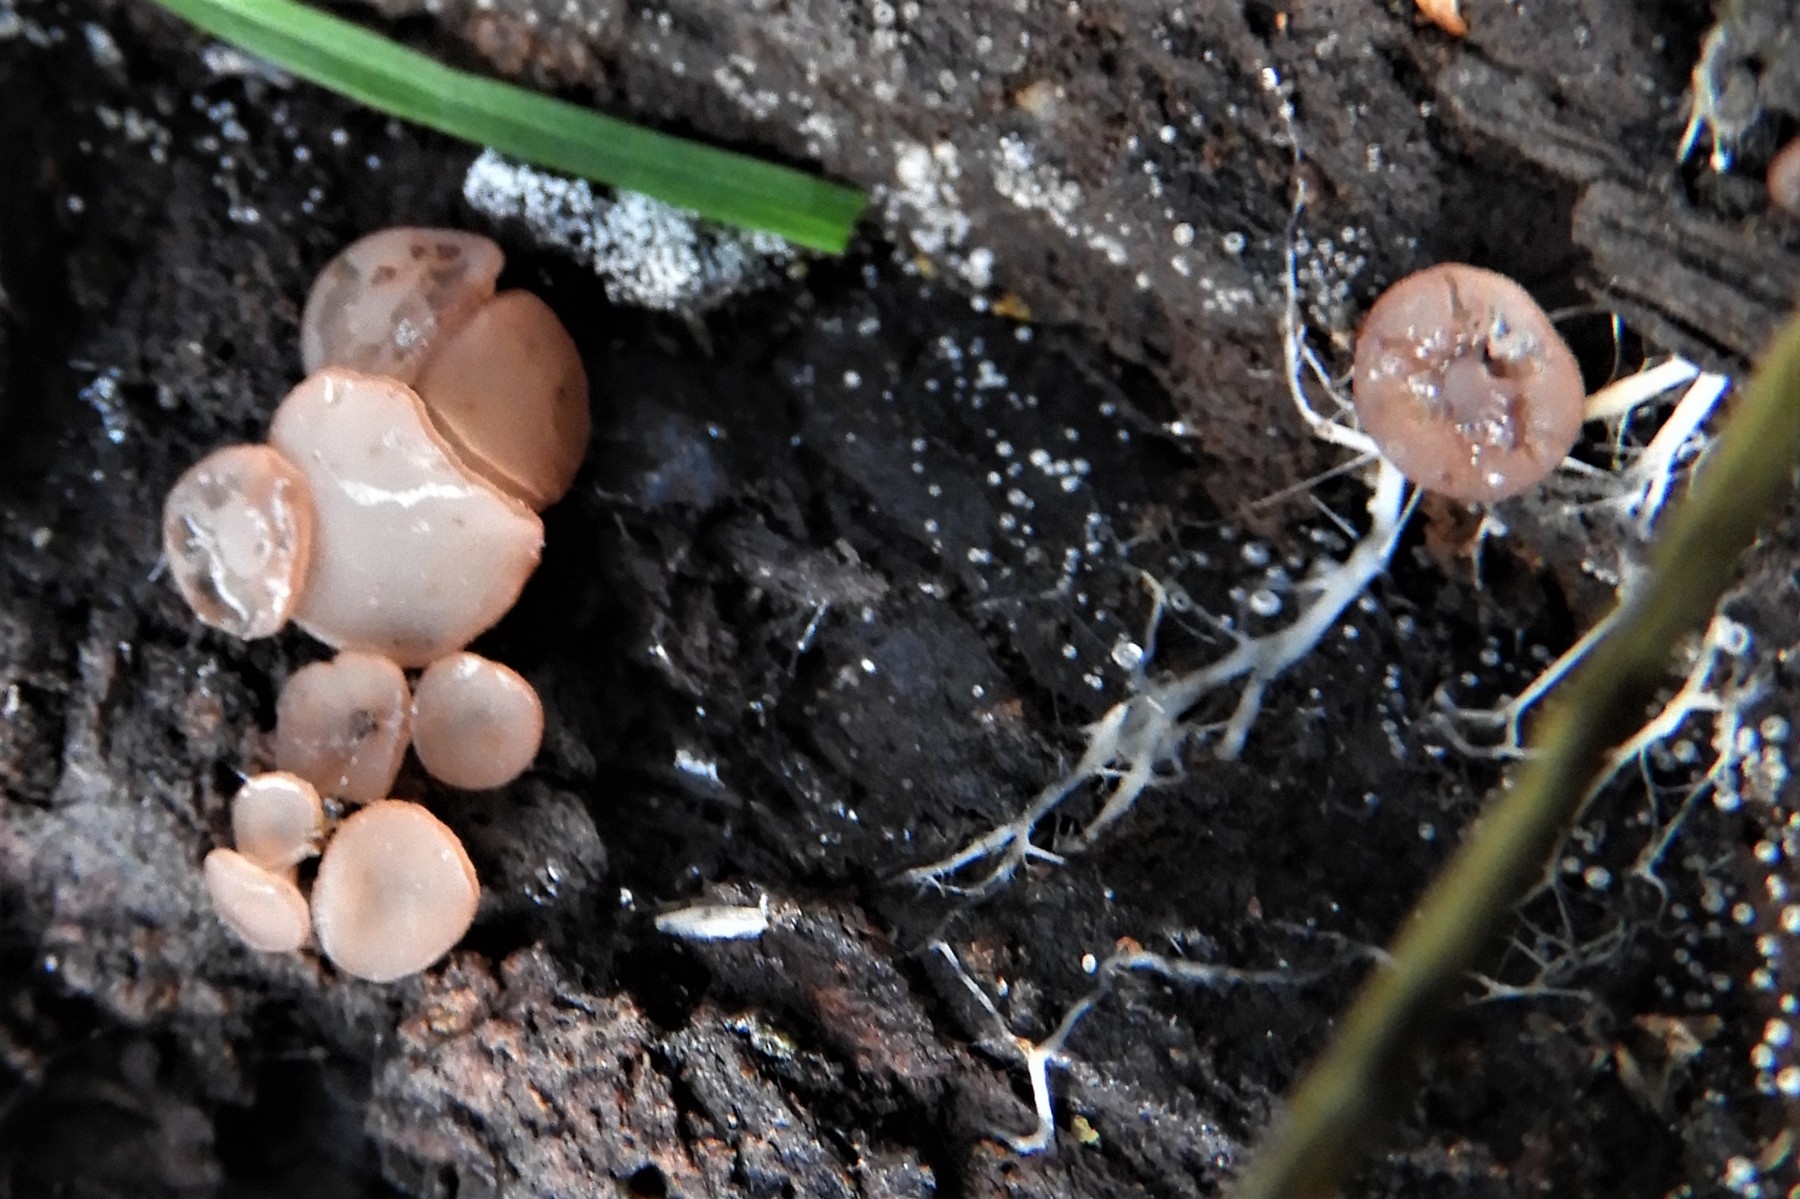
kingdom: Fungi
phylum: Ascomycota
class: Leotiomycetes
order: Helotiales
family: Gelatinodiscaceae
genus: Ombrophila
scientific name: Ombrophila
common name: bævreskive
